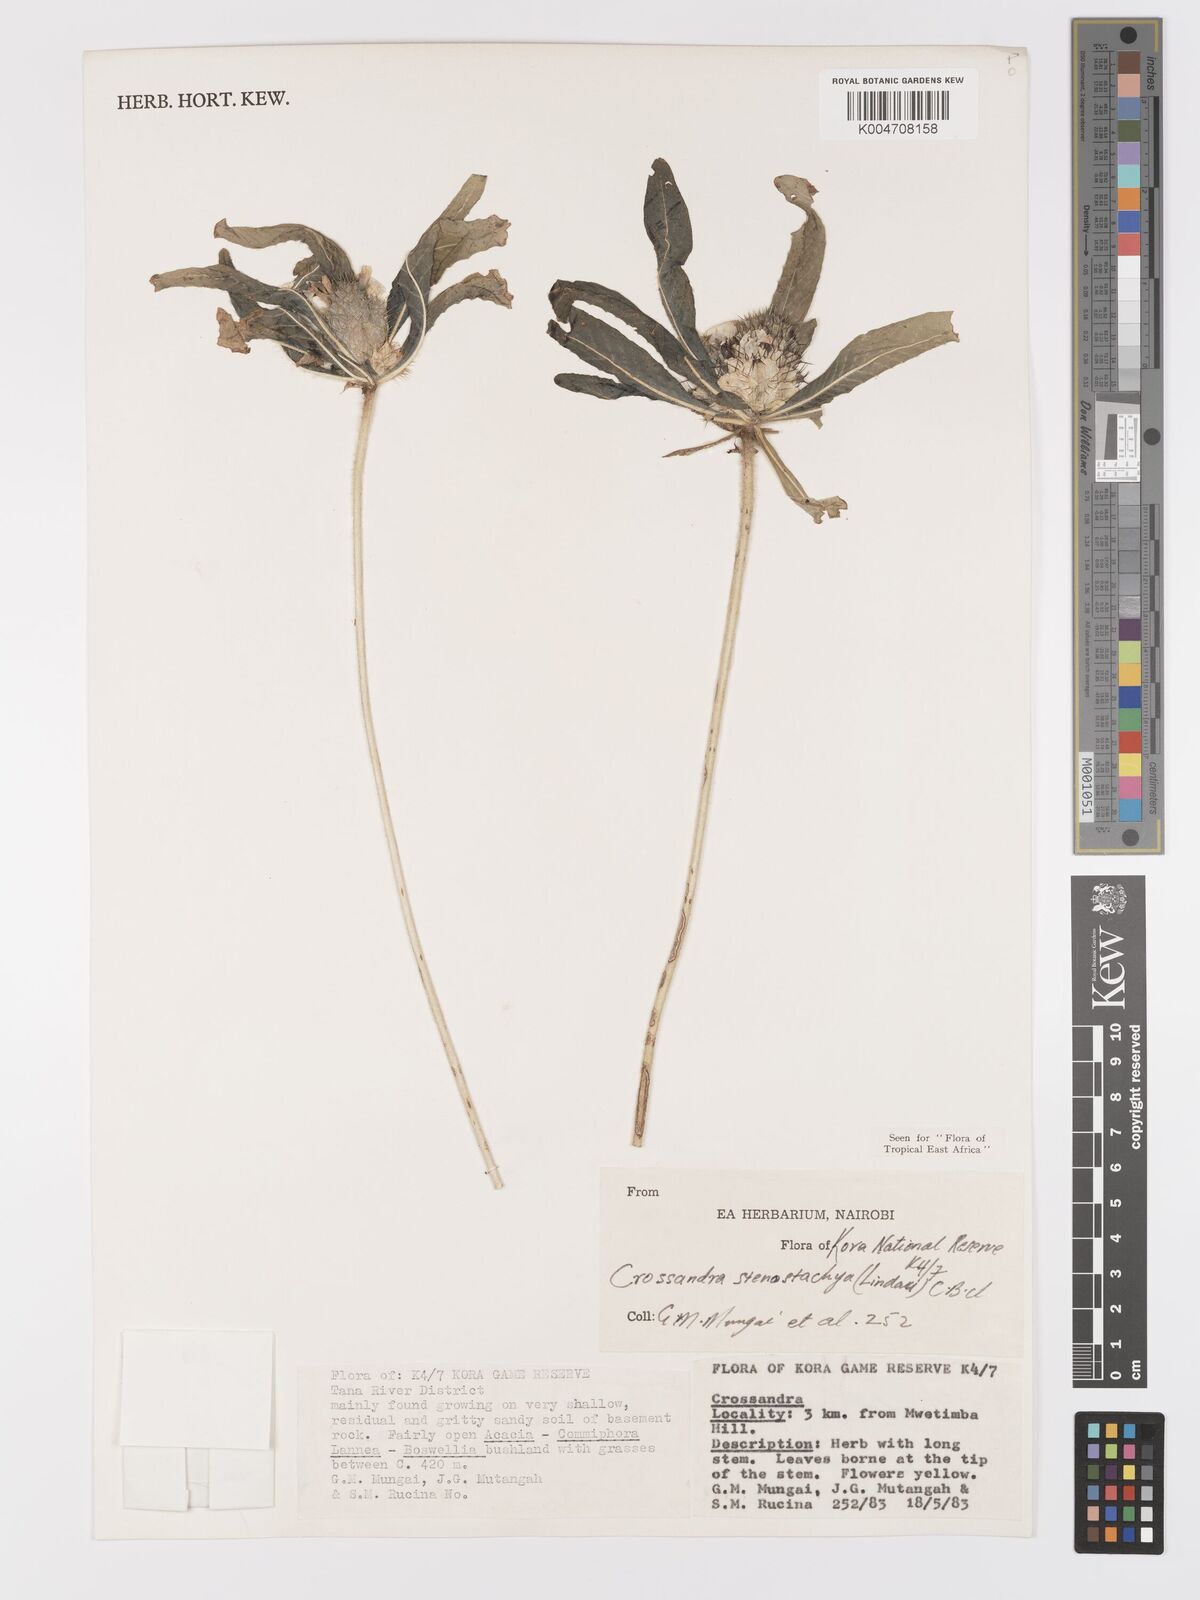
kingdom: Plantae
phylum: Tracheophyta
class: Magnoliopsida
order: Lamiales
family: Acanthaceae
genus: Crossandra
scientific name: Crossandra stenostachya
